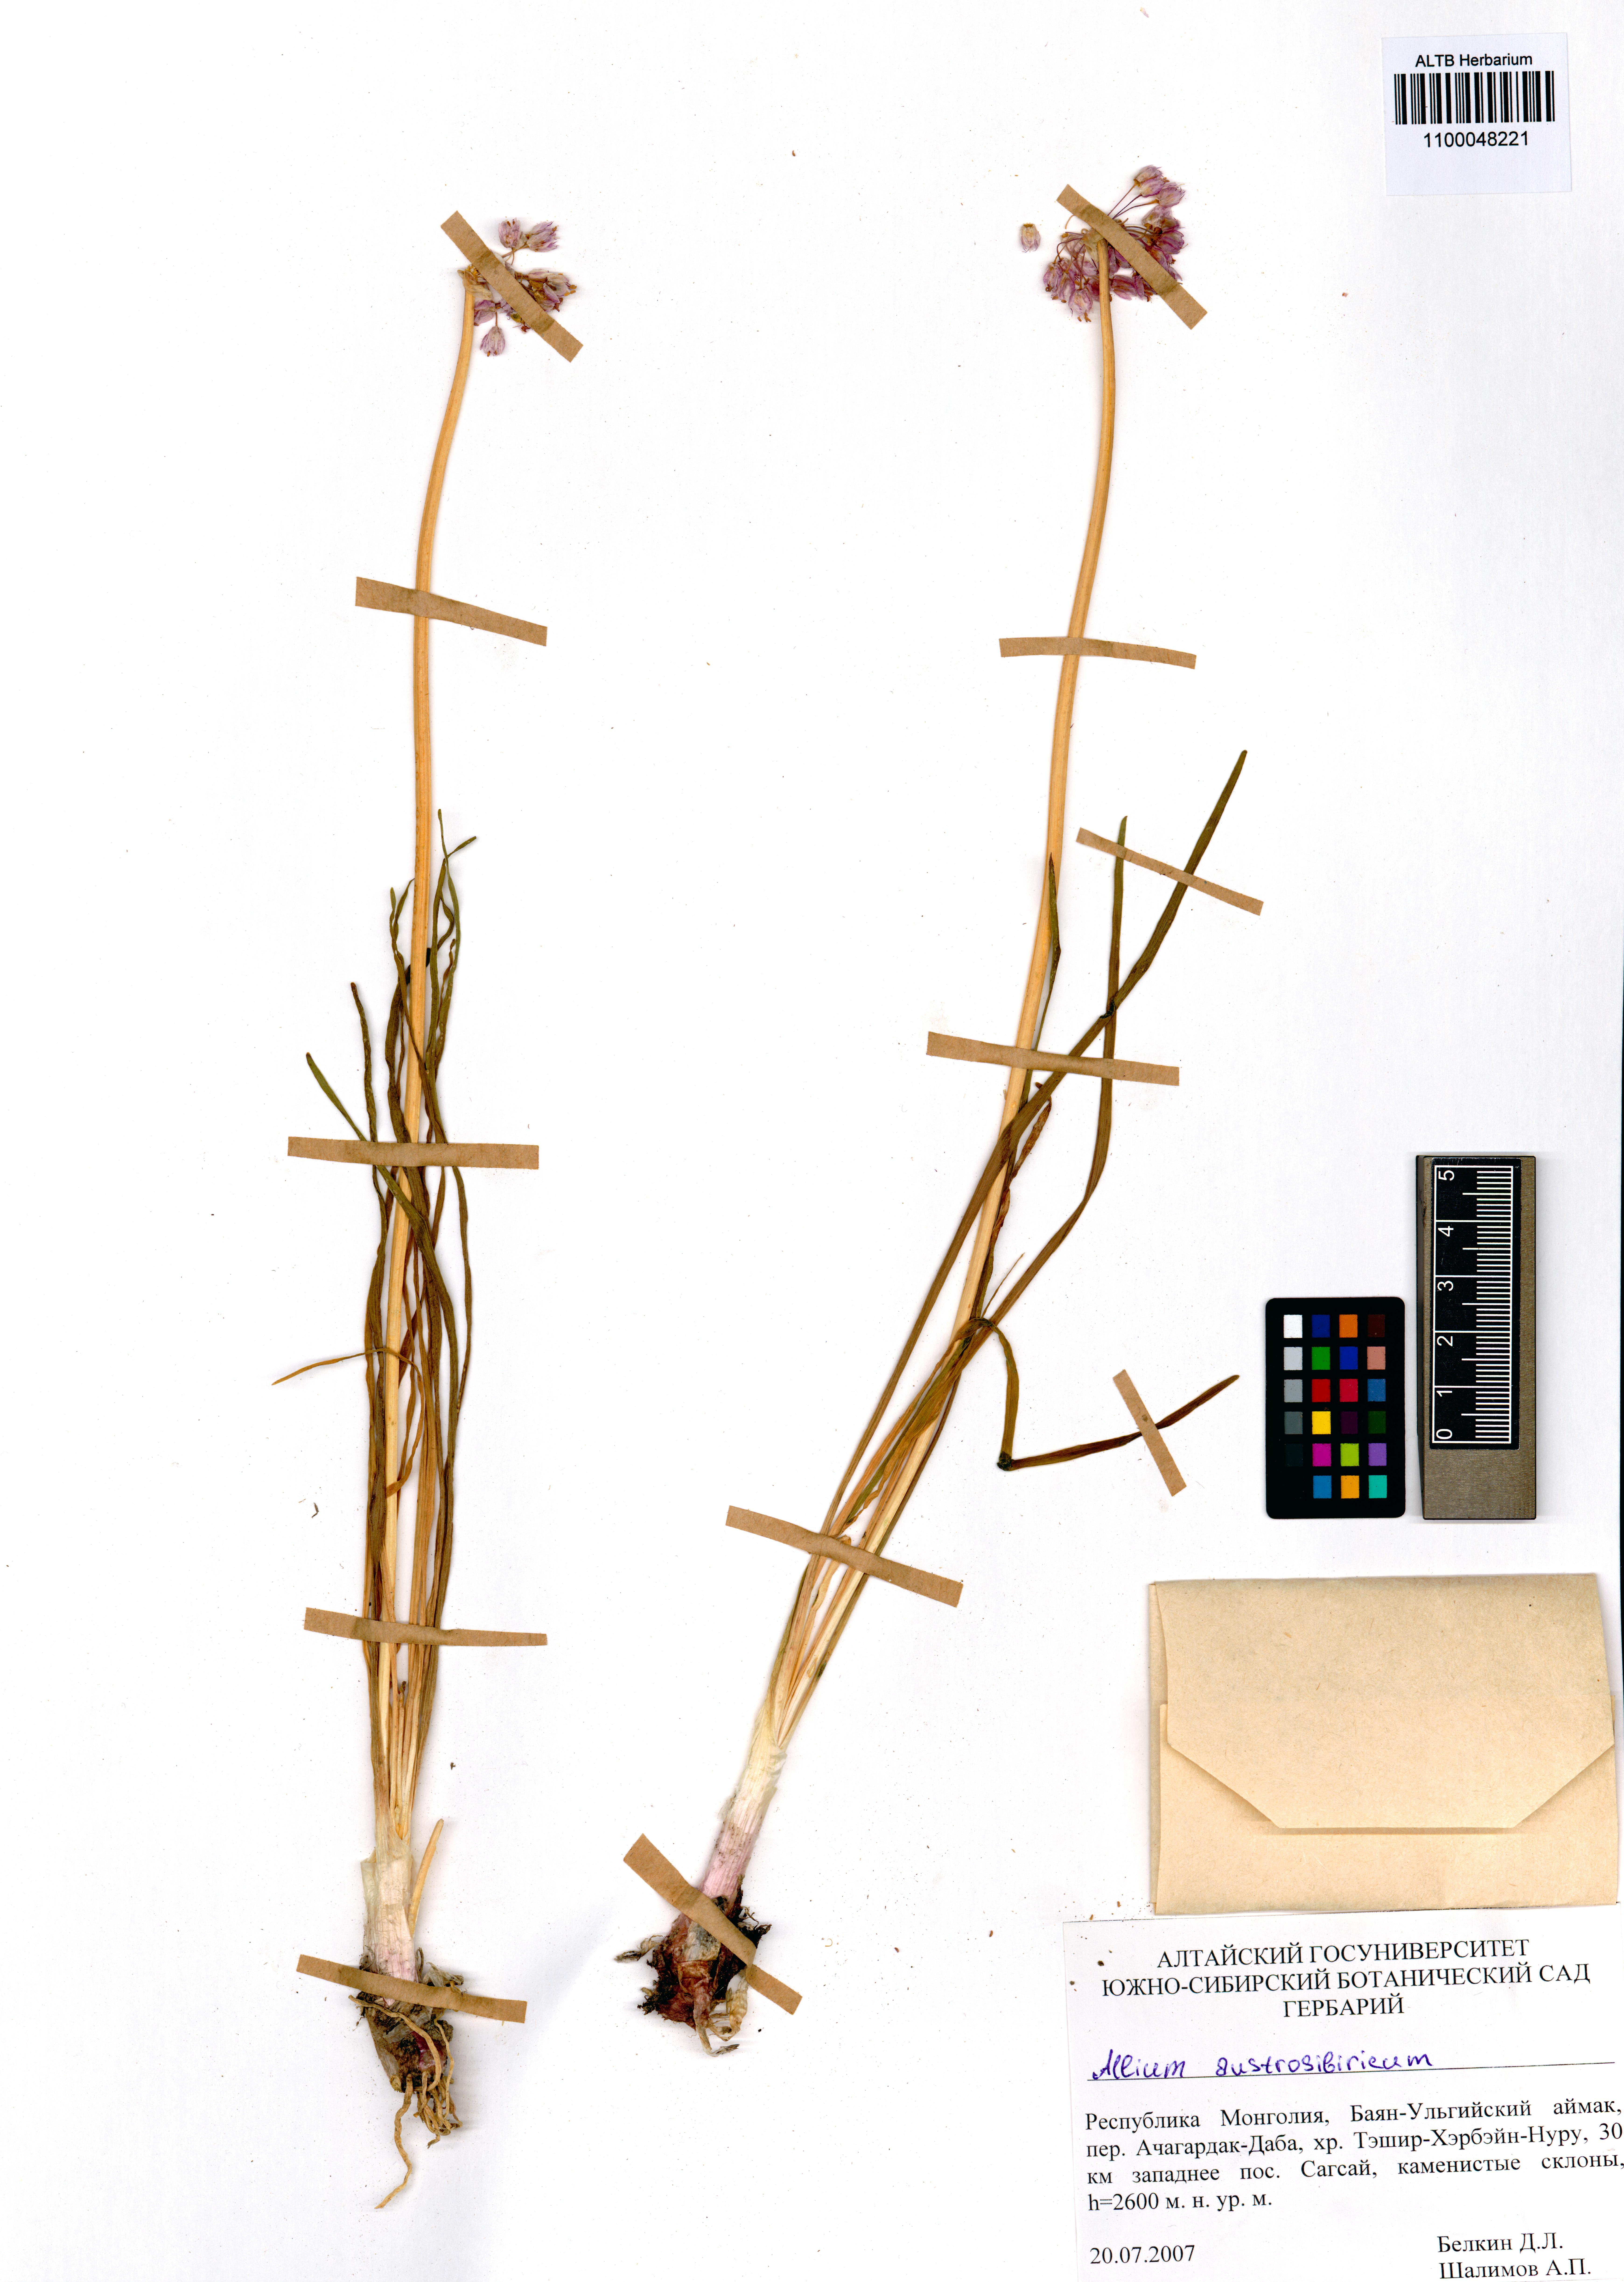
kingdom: Plantae
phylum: Tracheophyta
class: Liliopsida
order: Asparagales
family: Amaryllidaceae
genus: Allium
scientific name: Allium austrosibiricum
